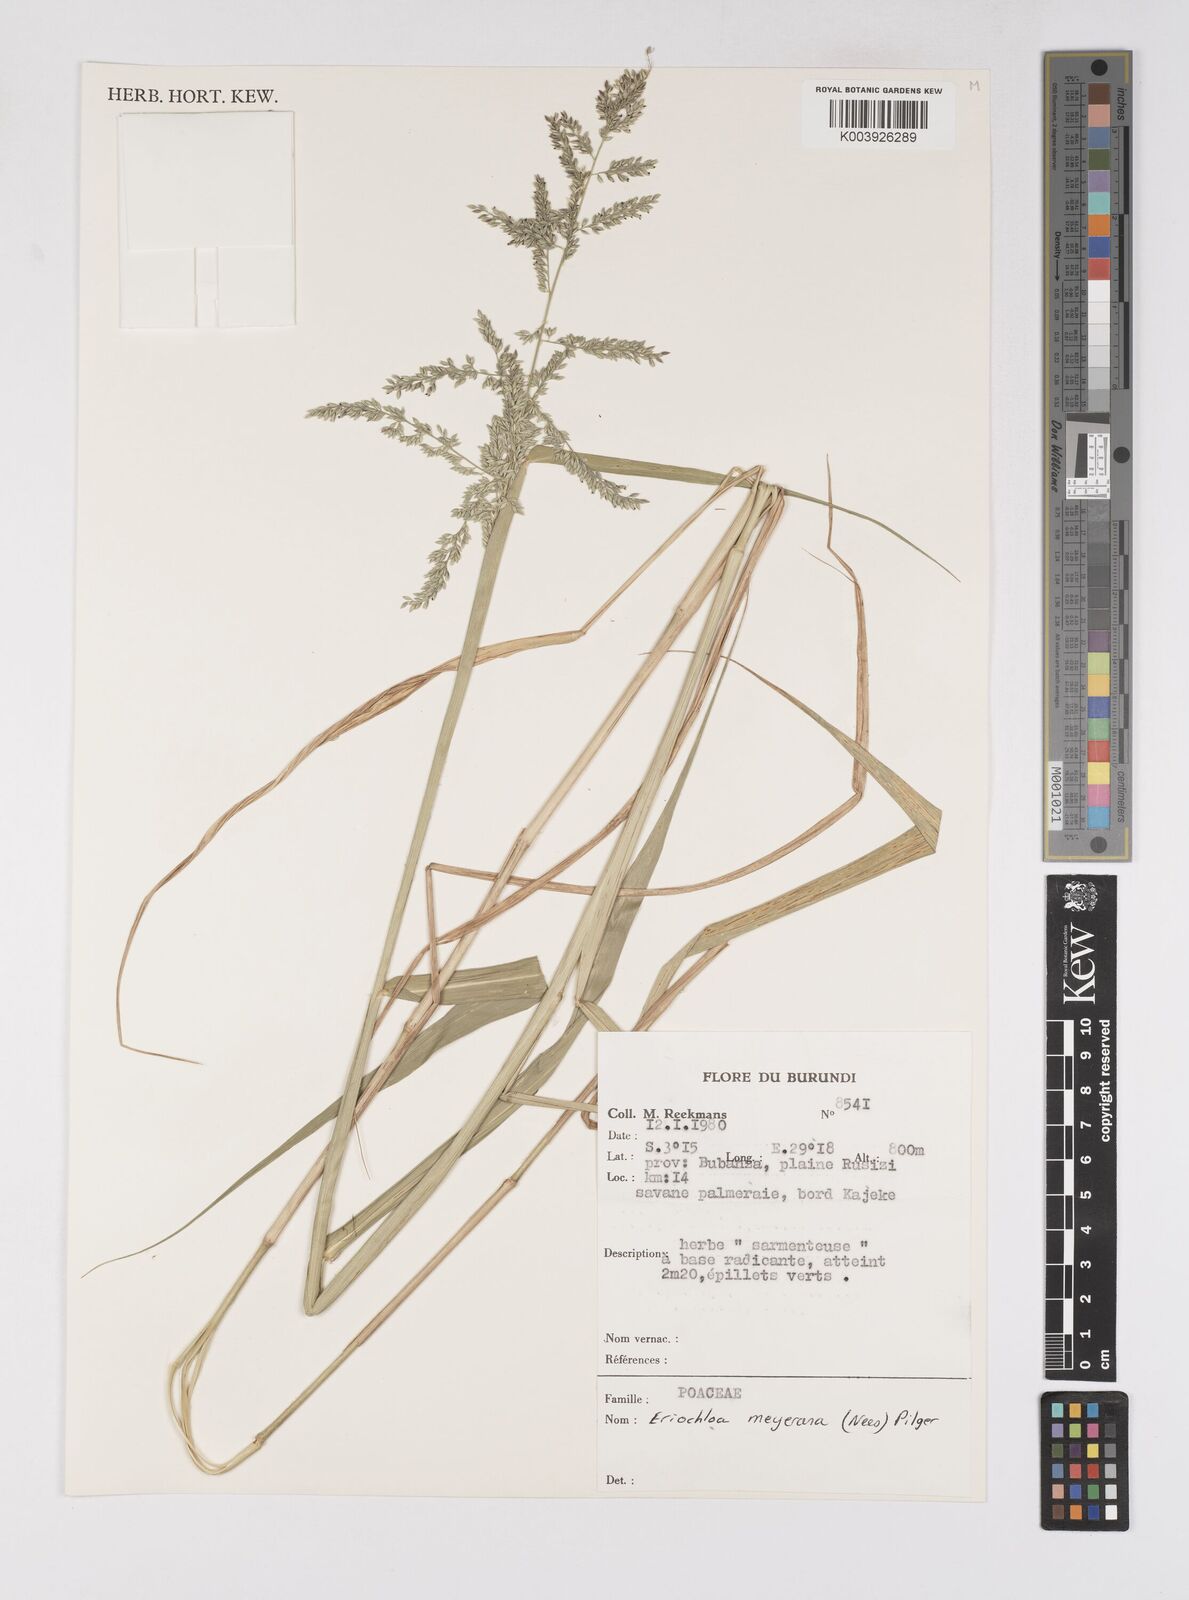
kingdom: Plantae
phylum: Tracheophyta
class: Liliopsida
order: Poales
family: Poaceae
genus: Eriochloa
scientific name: Eriochloa meyeriana
